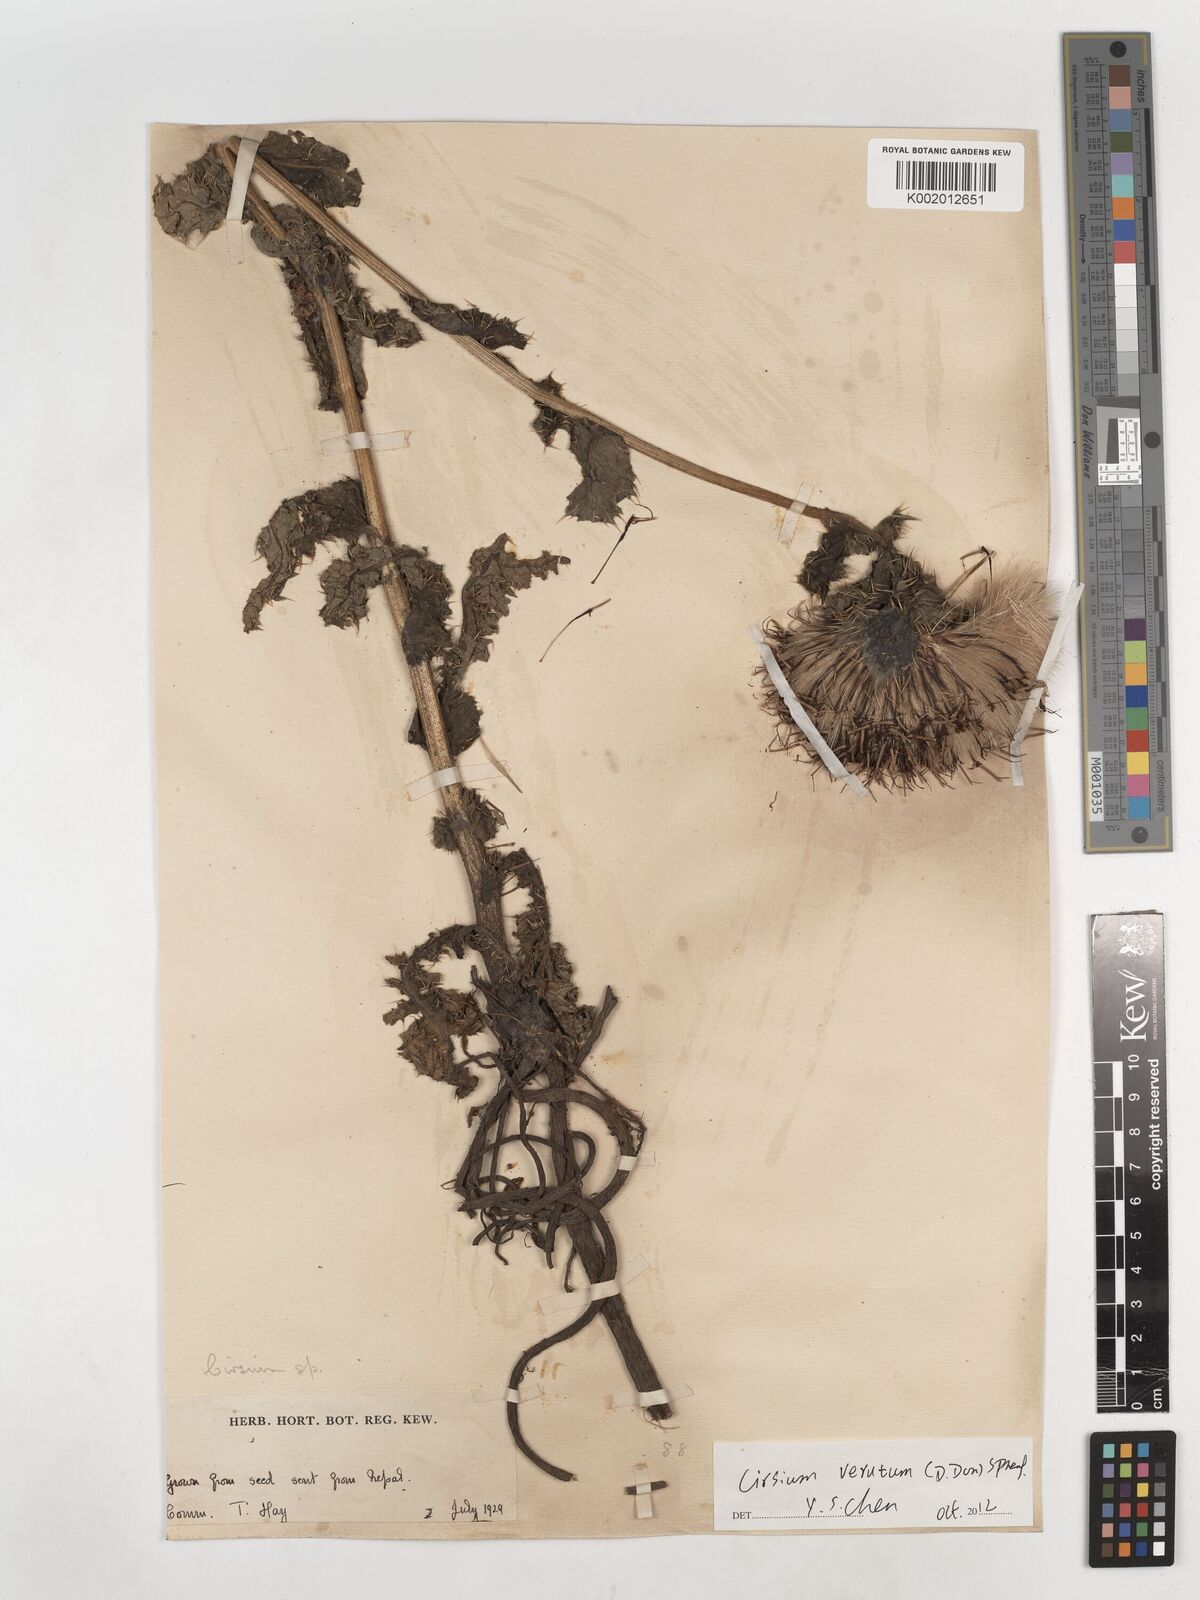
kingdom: Plantae
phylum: Tracheophyta
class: Magnoliopsida
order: Asterales
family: Asteraceae
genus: Cirsium
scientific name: Cirsium
